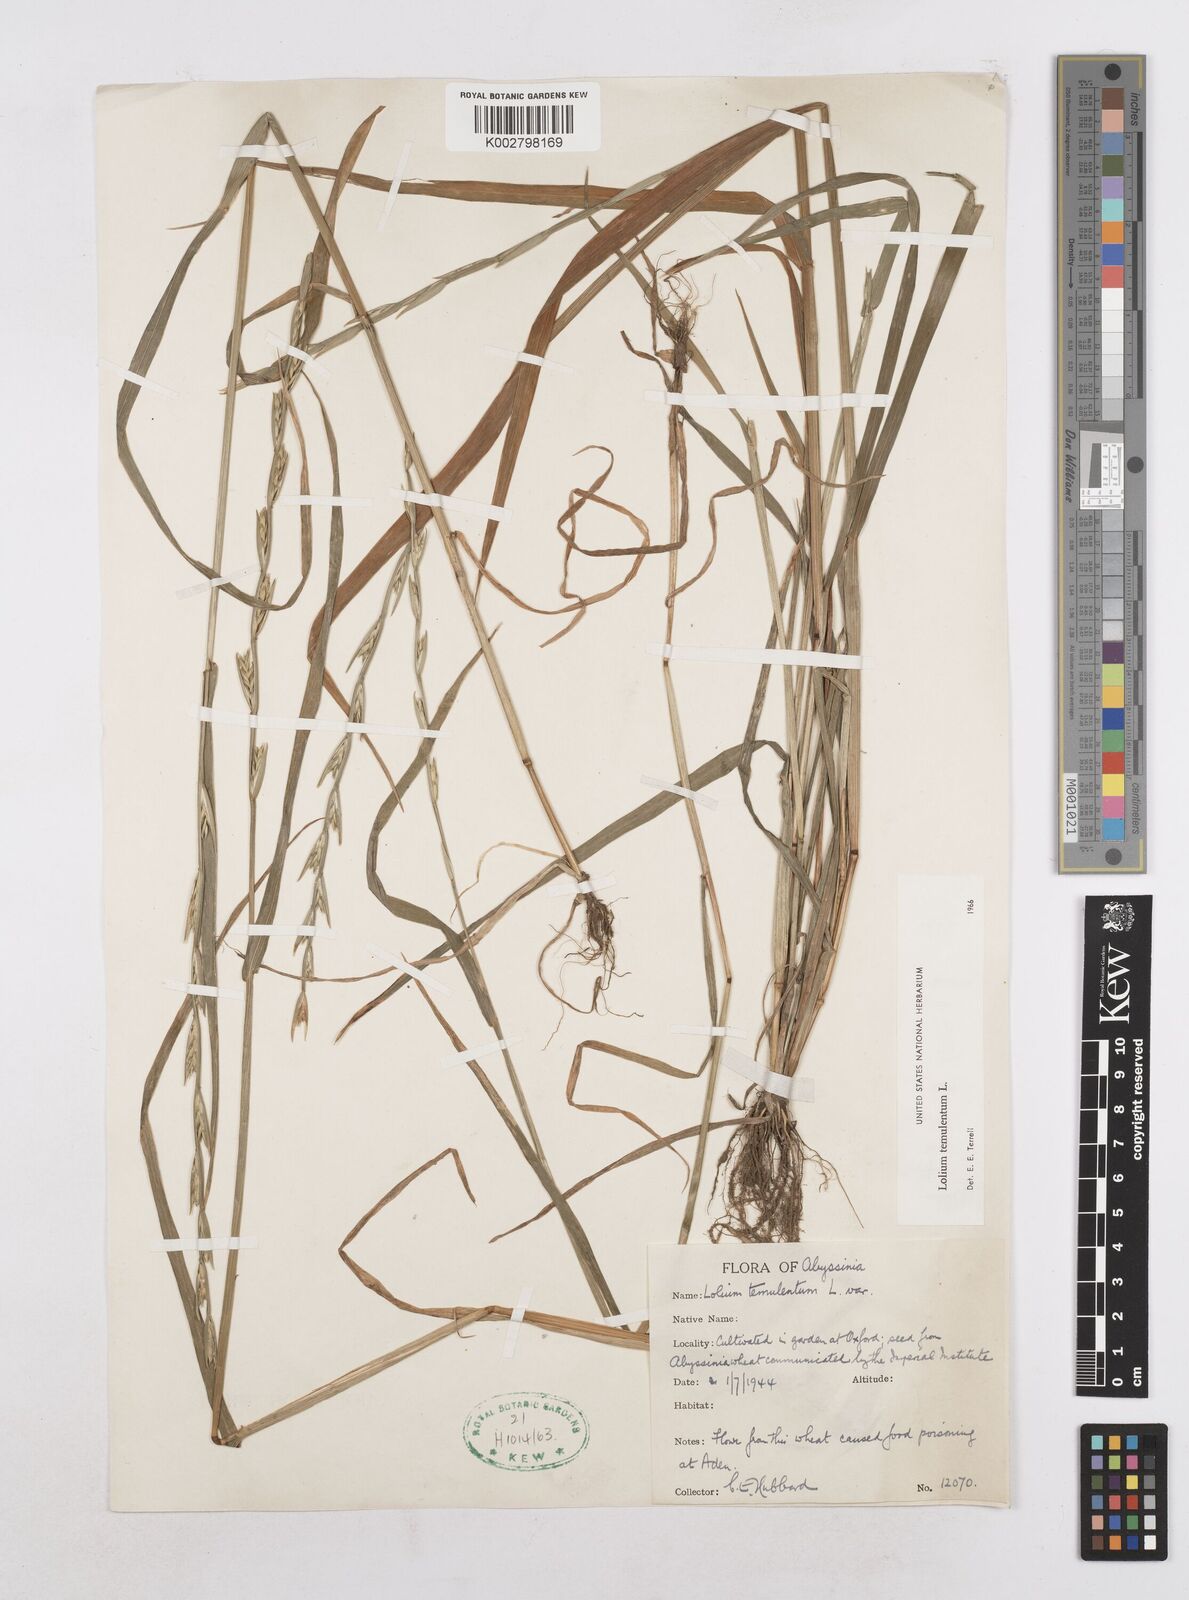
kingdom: Plantae
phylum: Tracheophyta
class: Liliopsida
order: Poales
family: Poaceae
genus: Lolium
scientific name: Lolium temulentum
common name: Darnel
